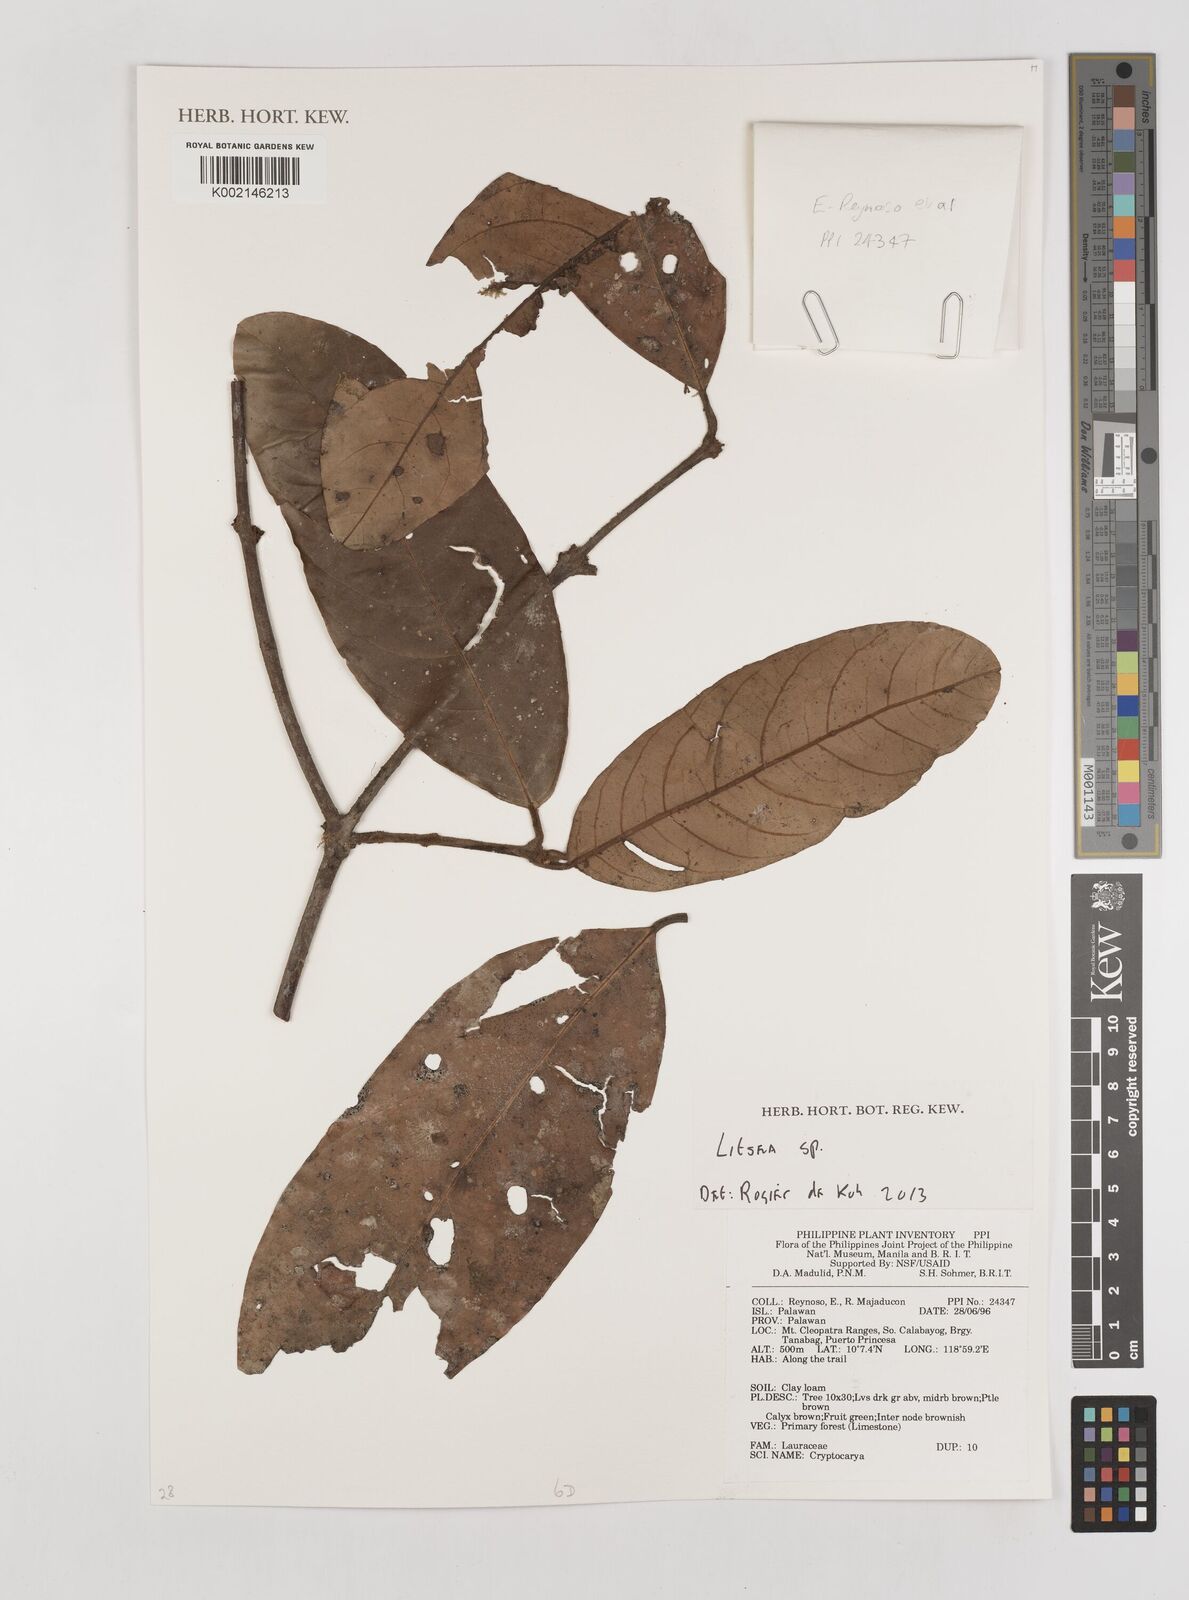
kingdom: Plantae
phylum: Tracheophyta
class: Magnoliopsida
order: Laurales
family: Lauraceae
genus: Litsea
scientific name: Litsea
